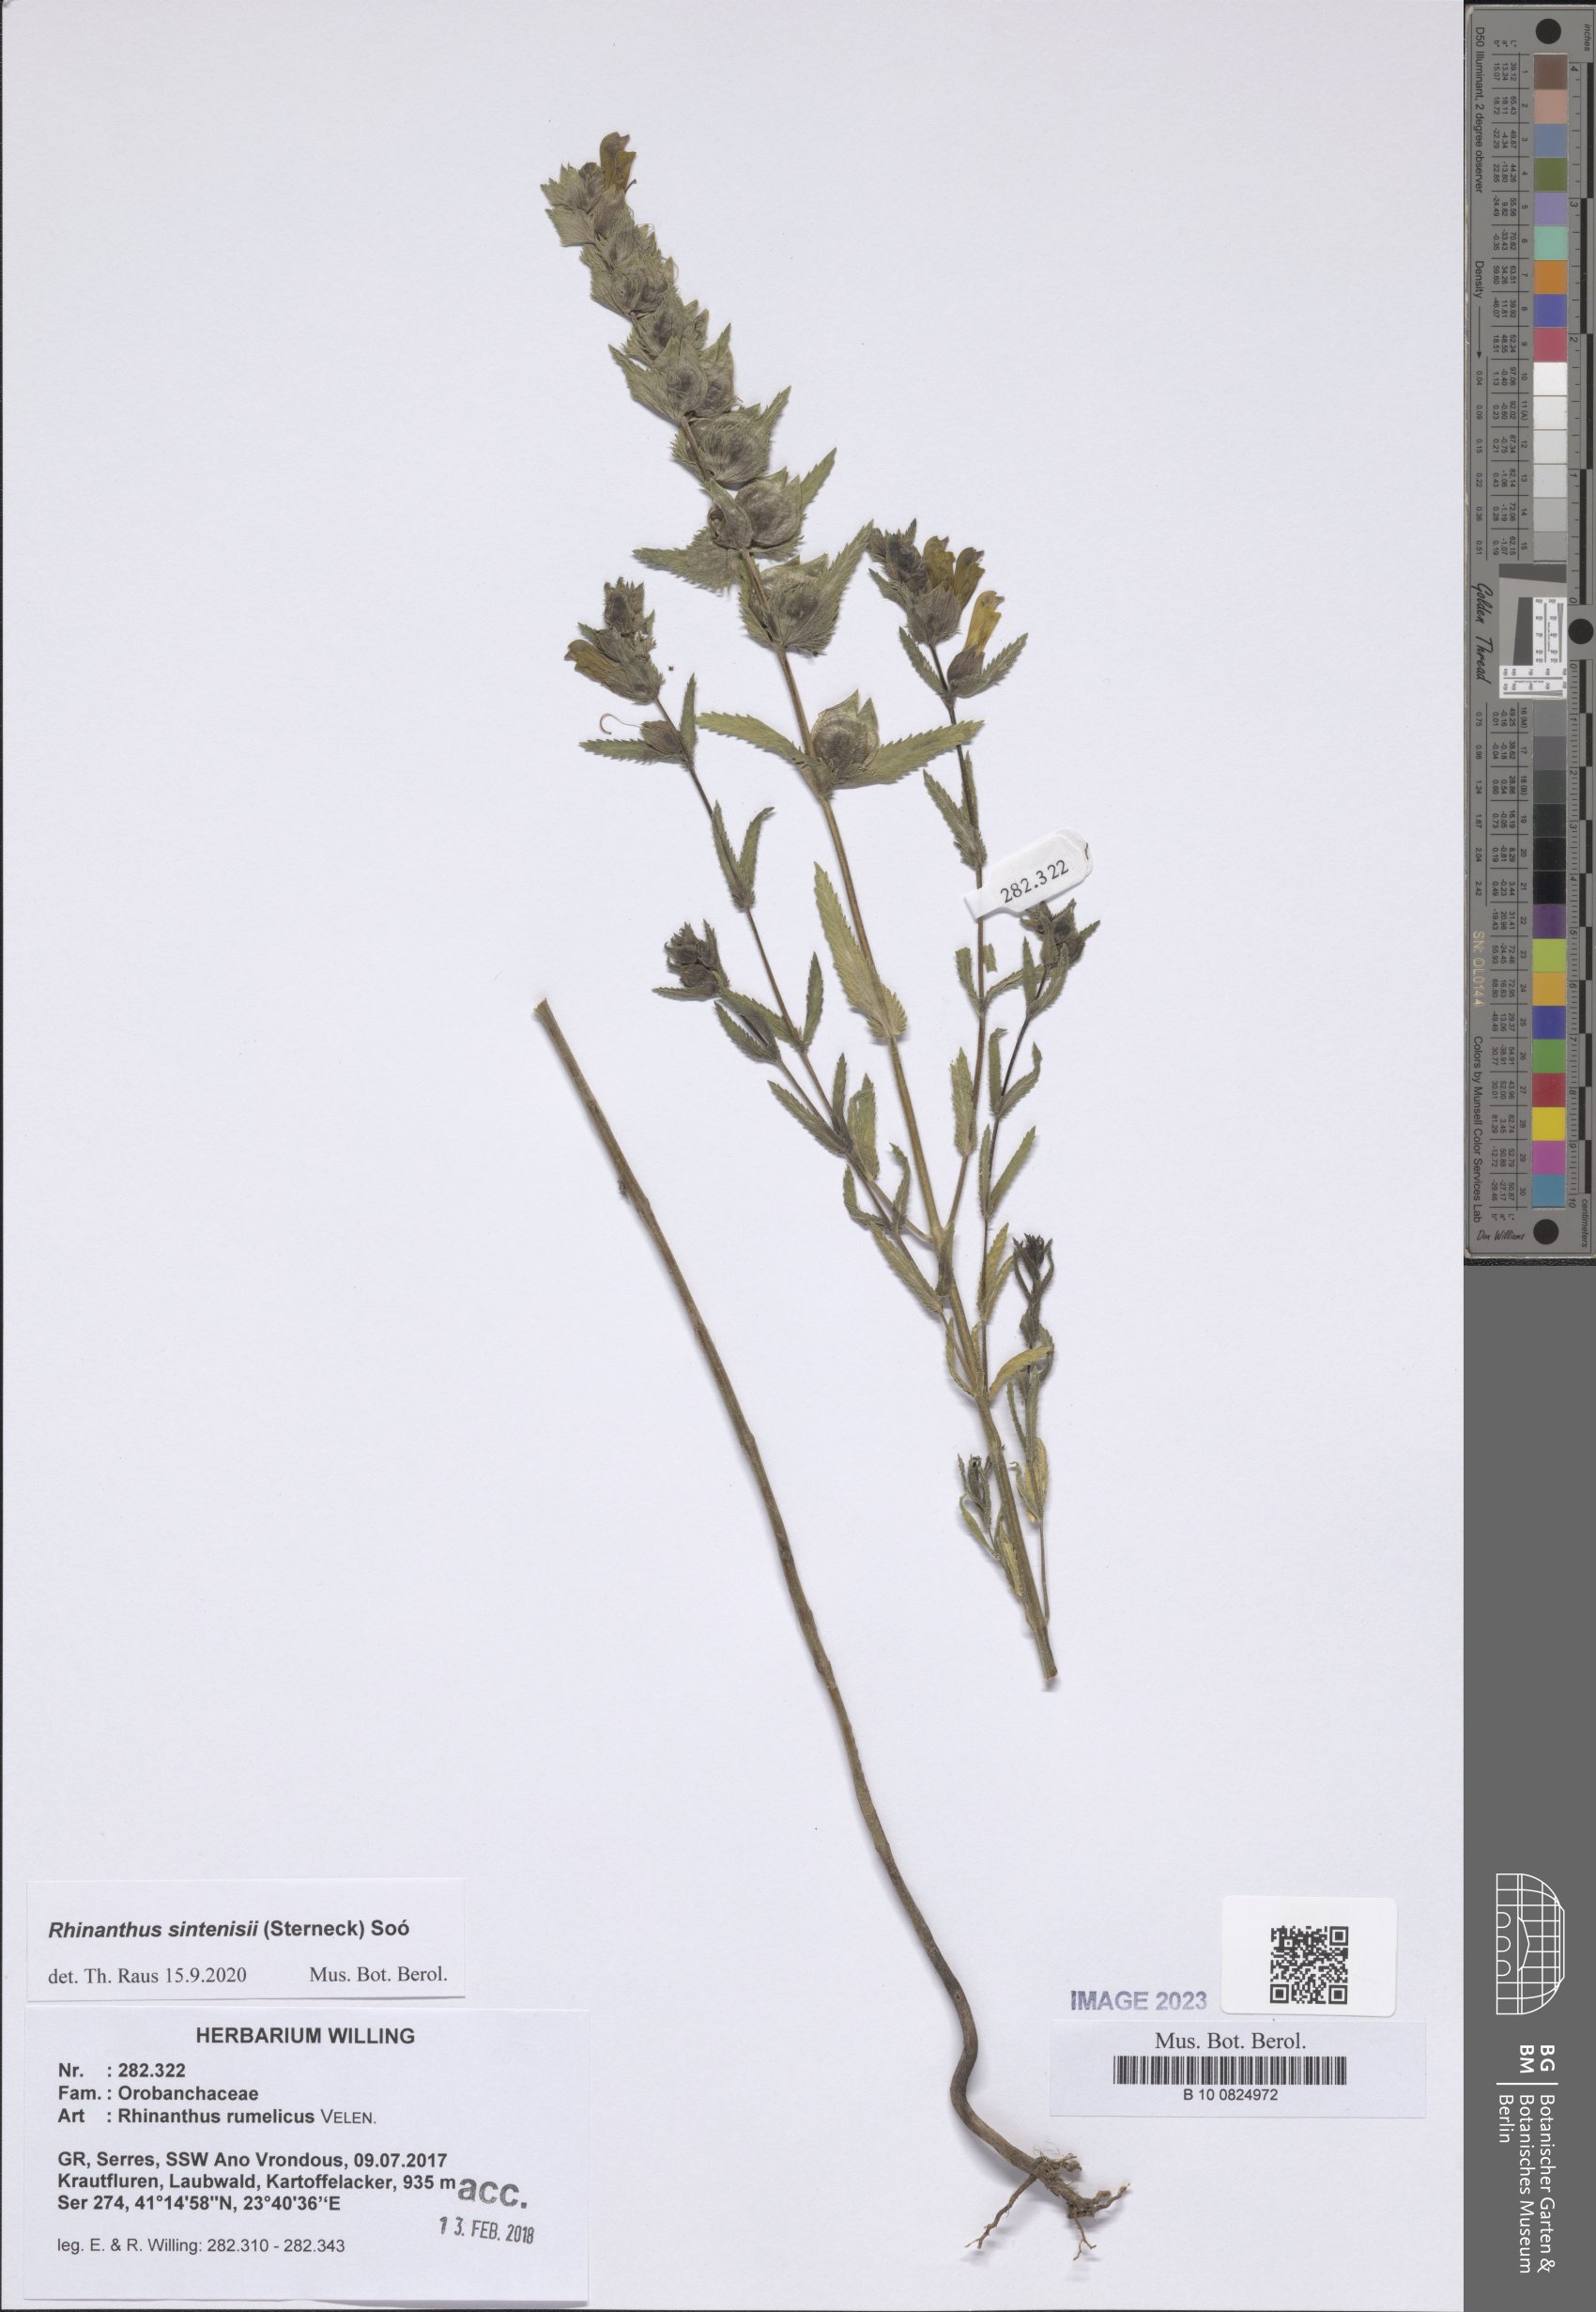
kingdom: Plantae
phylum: Tracheophyta
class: Magnoliopsida
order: Lamiales
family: Orobanchaceae
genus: Rhinanthus
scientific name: Rhinanthus sintenisii
